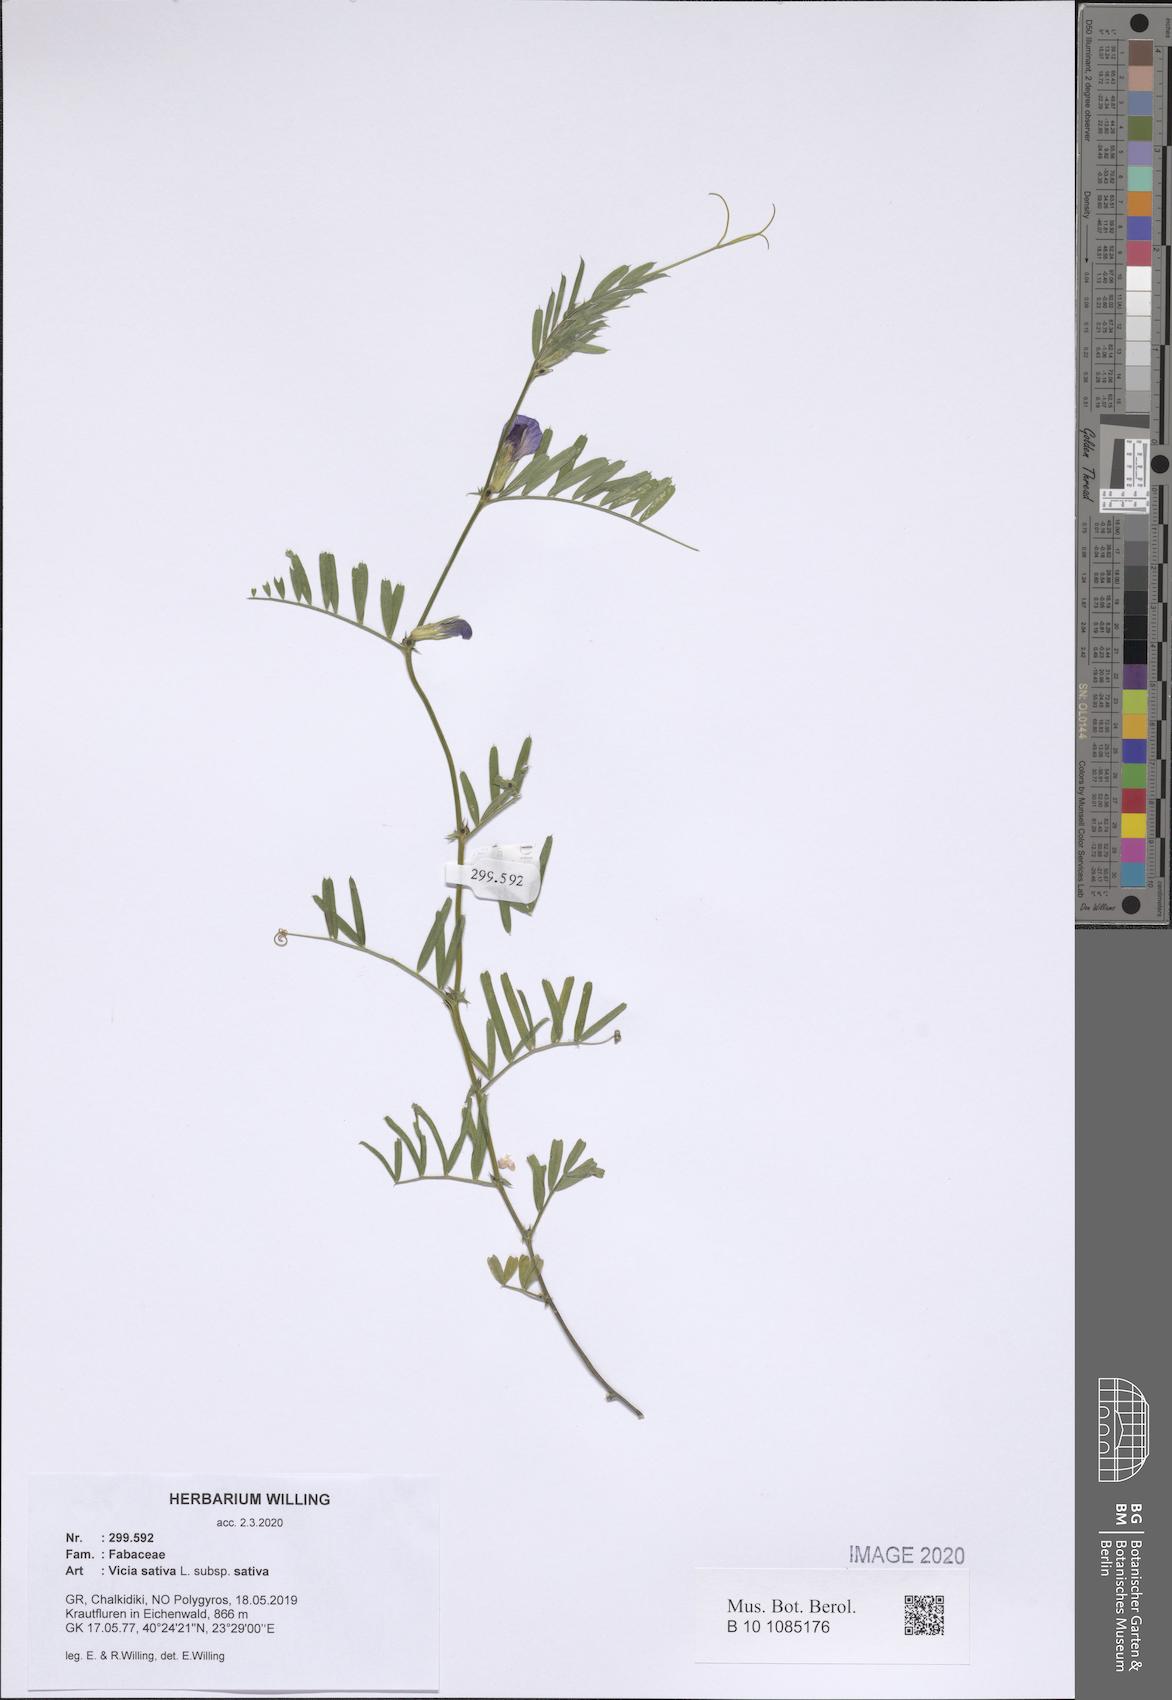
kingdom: Plantae
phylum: Tracheophyta
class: Magnoliopsida
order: Fabales
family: Fabaceae
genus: Vicia
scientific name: Vicia sativa
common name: Garden vetch
